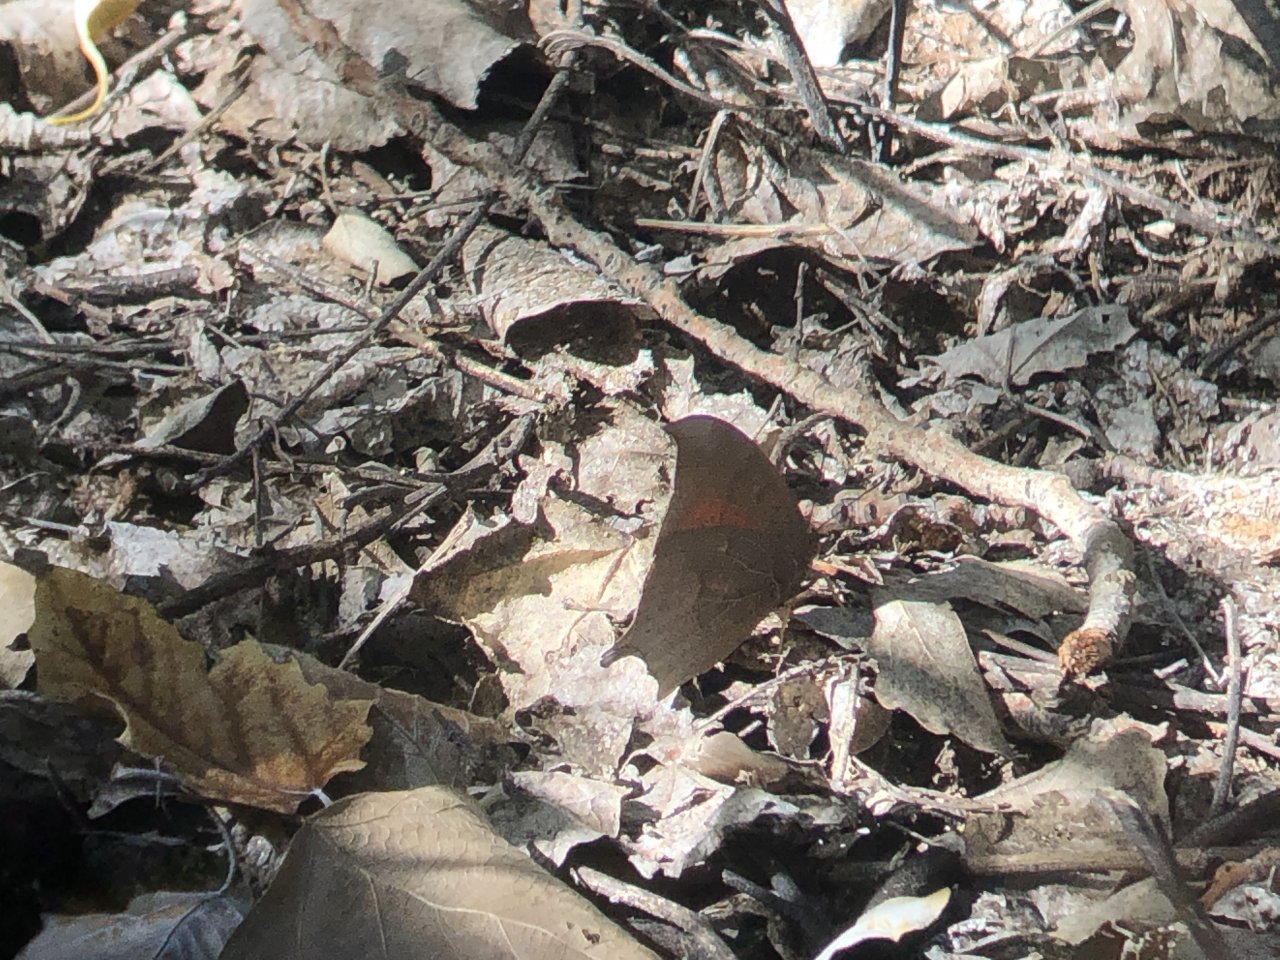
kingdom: Animalia
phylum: Arthropoda
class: Insecta
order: Lepidoptera
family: Nymphalidae
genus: Anaea
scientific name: Anaea andria
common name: Goatweed Leafwing
